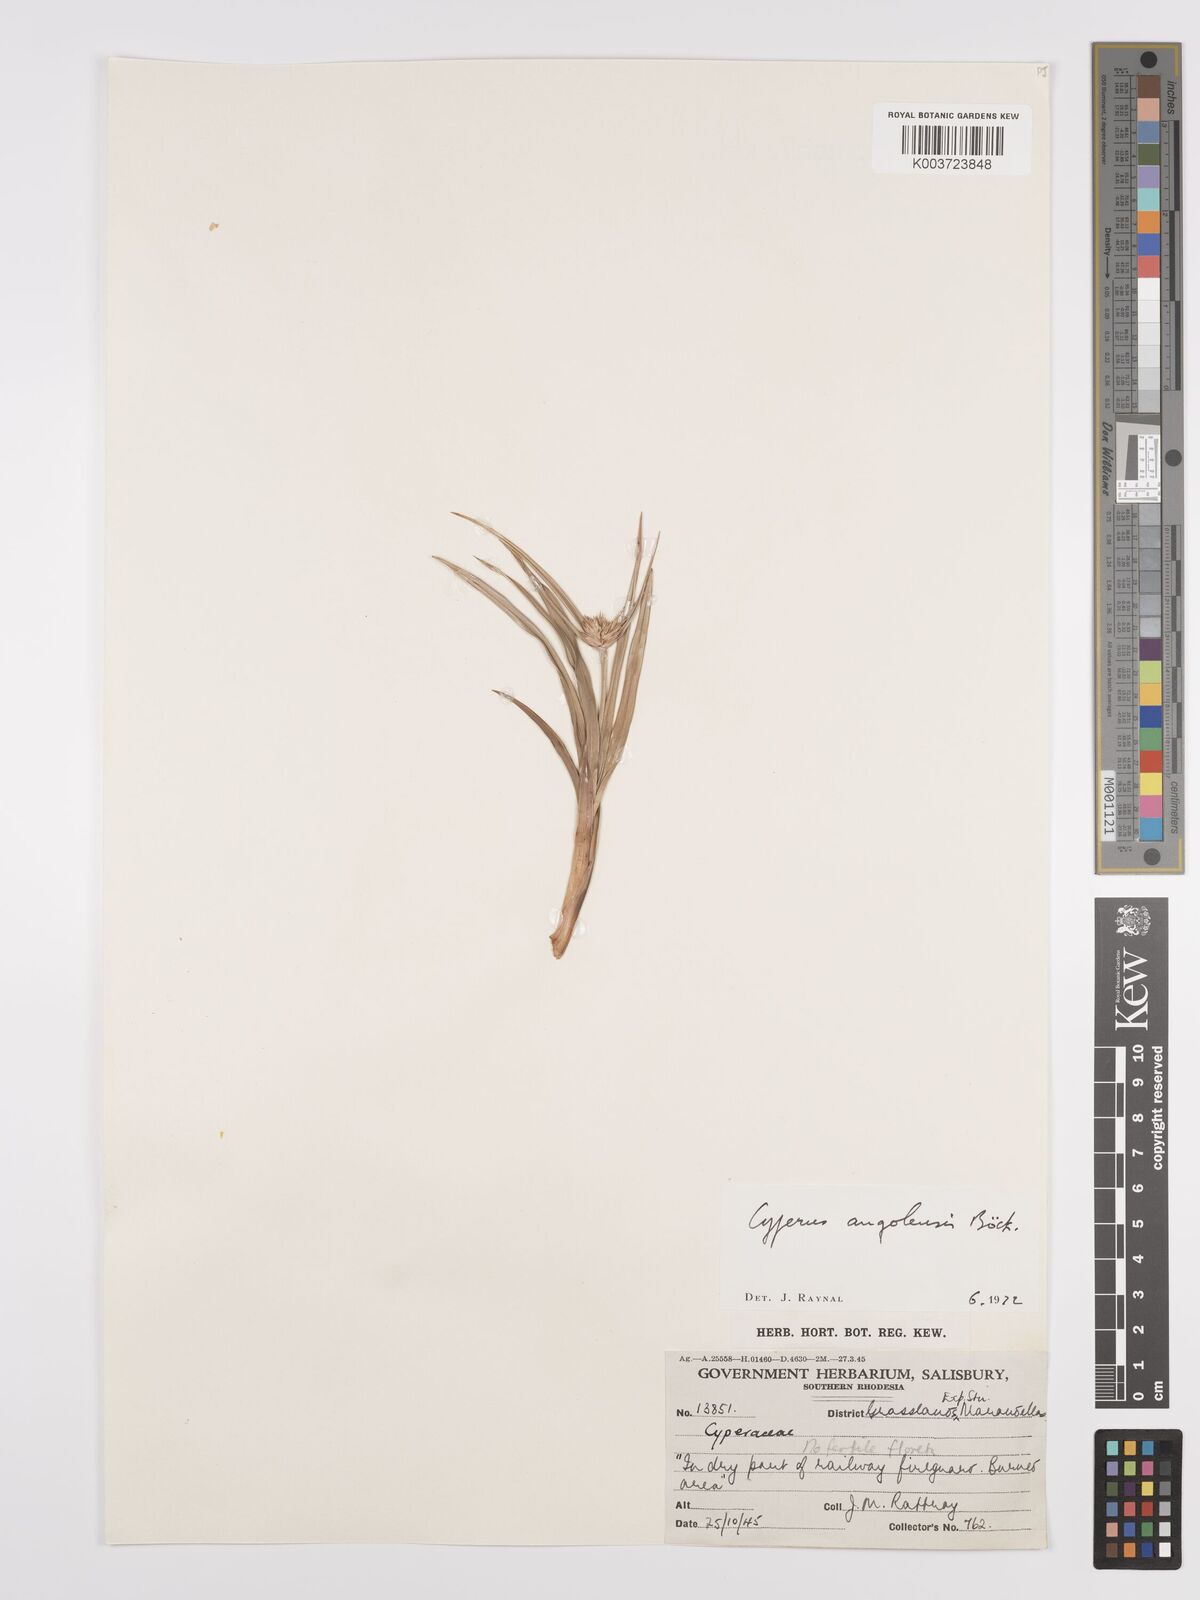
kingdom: Plantae
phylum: Tracheophyta
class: Liliopsida
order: Poales
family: Cyperaceae
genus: Cyperus
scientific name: Cyperus angolensis
